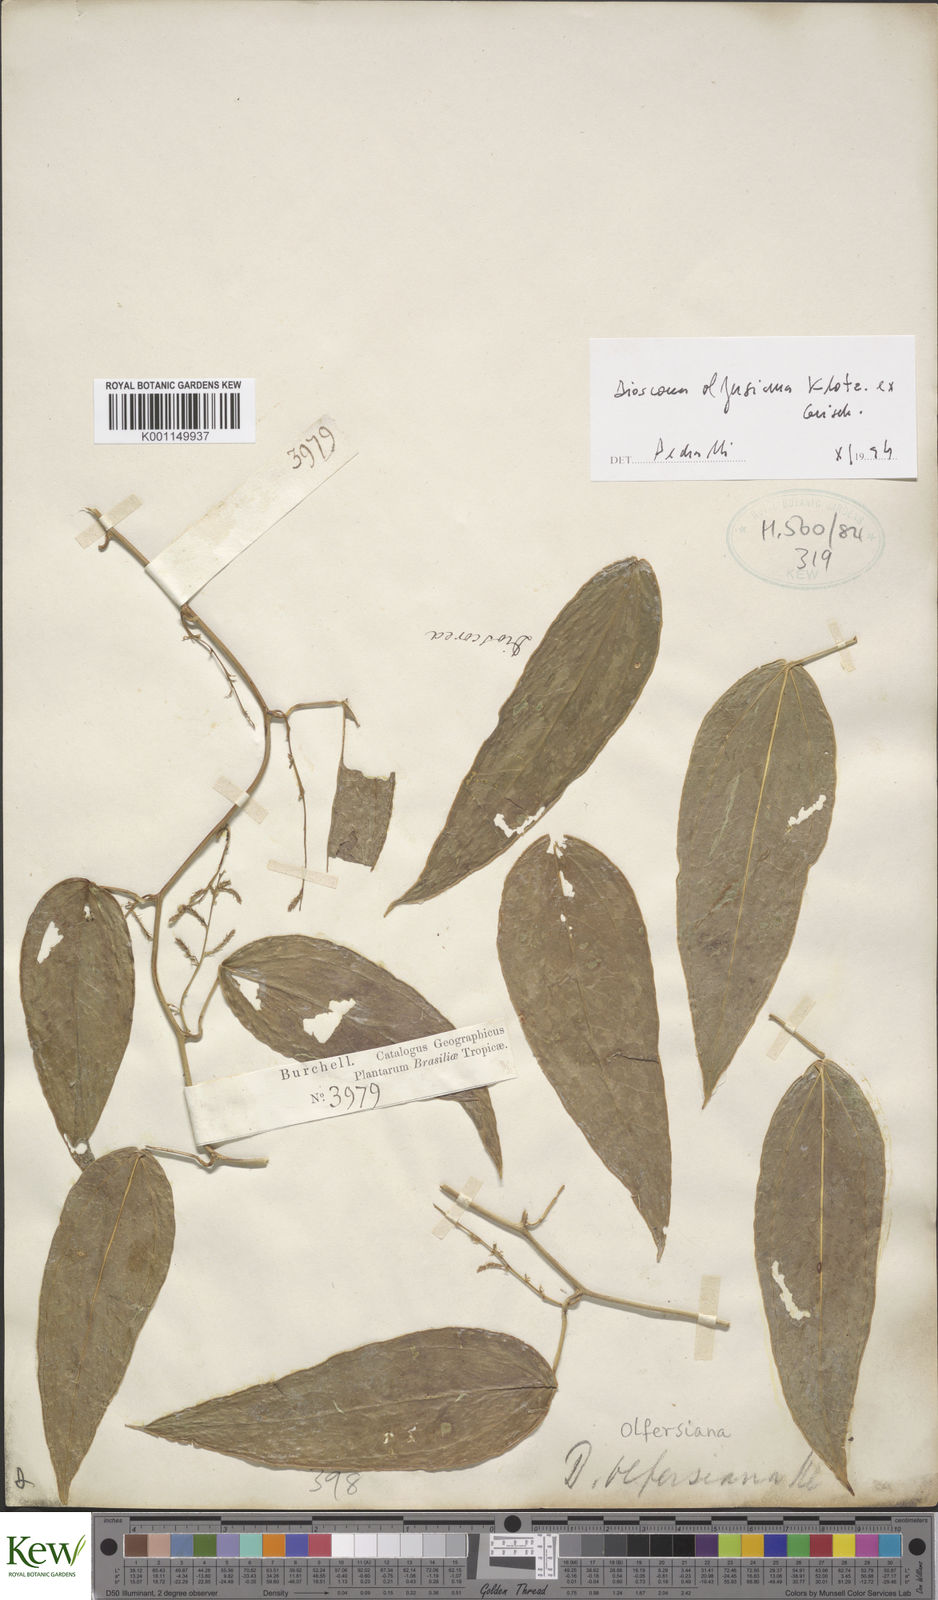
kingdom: Plantae
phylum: Tracheophyta
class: Liliopsida
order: Dioscoreales
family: Dioscoreaceae
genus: Dioscorea
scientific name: Dioscorea olfersiana
